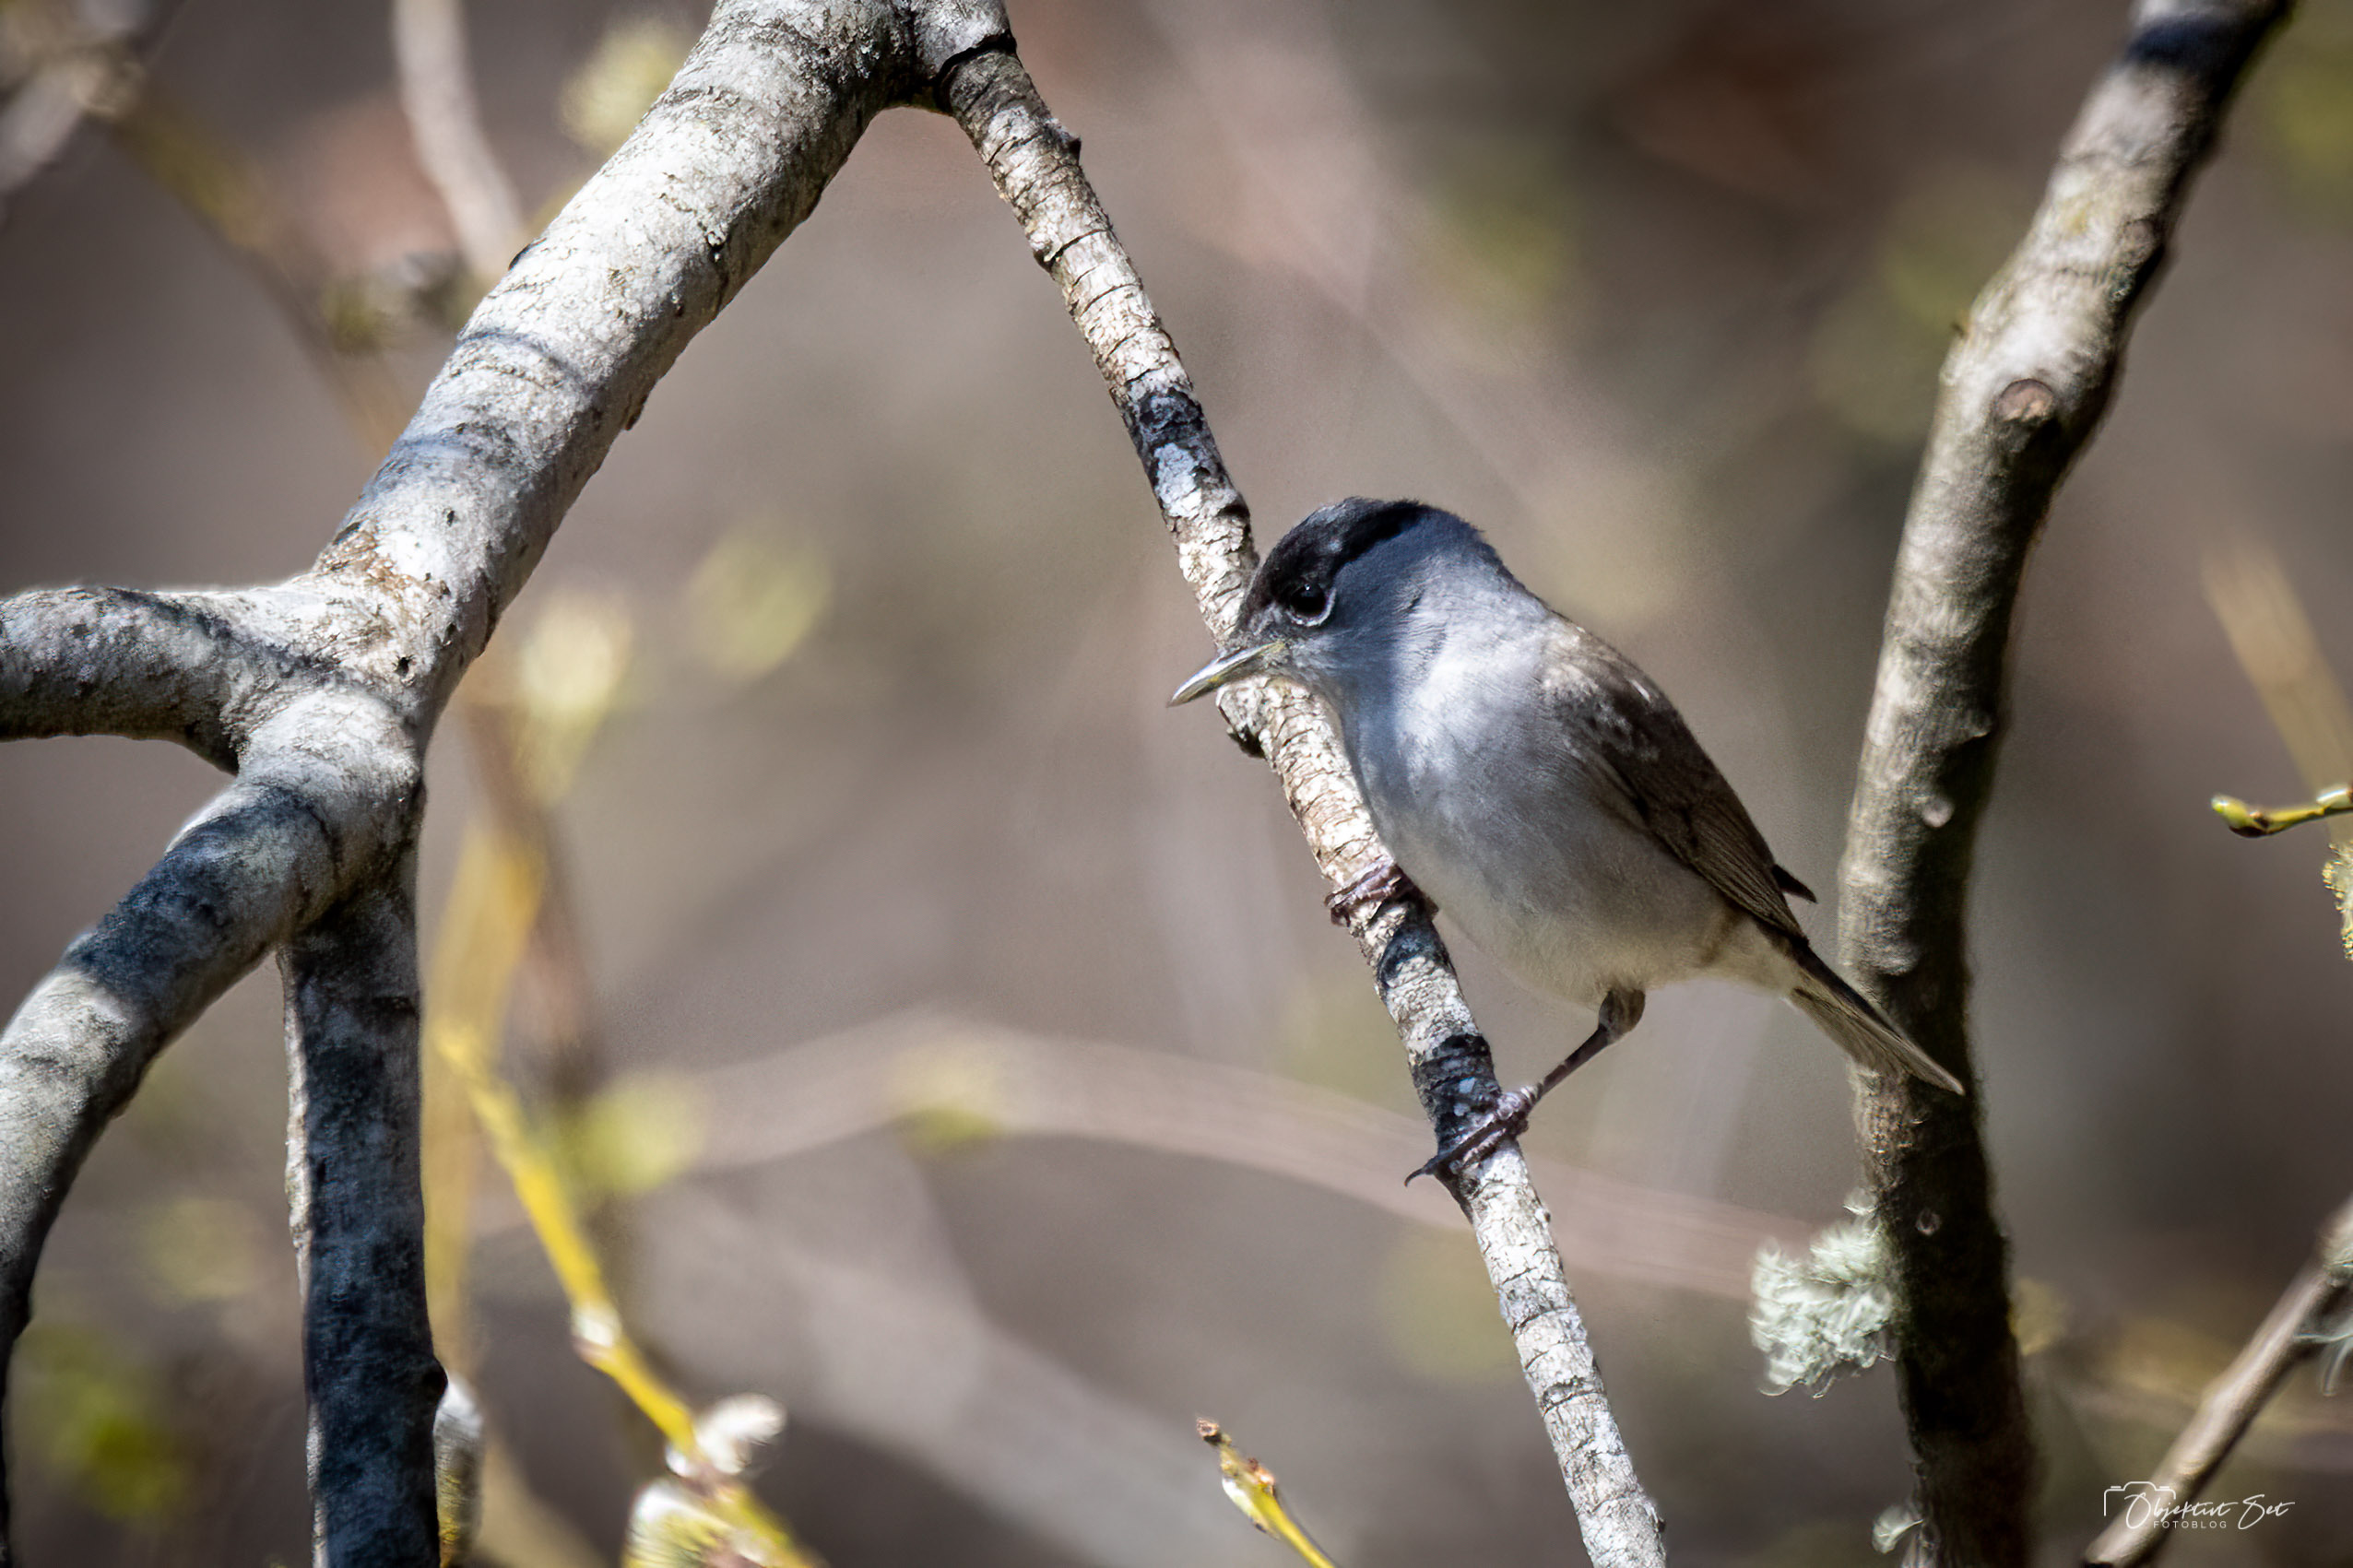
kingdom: Animalia
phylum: Chordata
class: Aves
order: Passeriformes
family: Sylviidae
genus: Sylvia
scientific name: Sylvia atricapilla
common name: Munk
